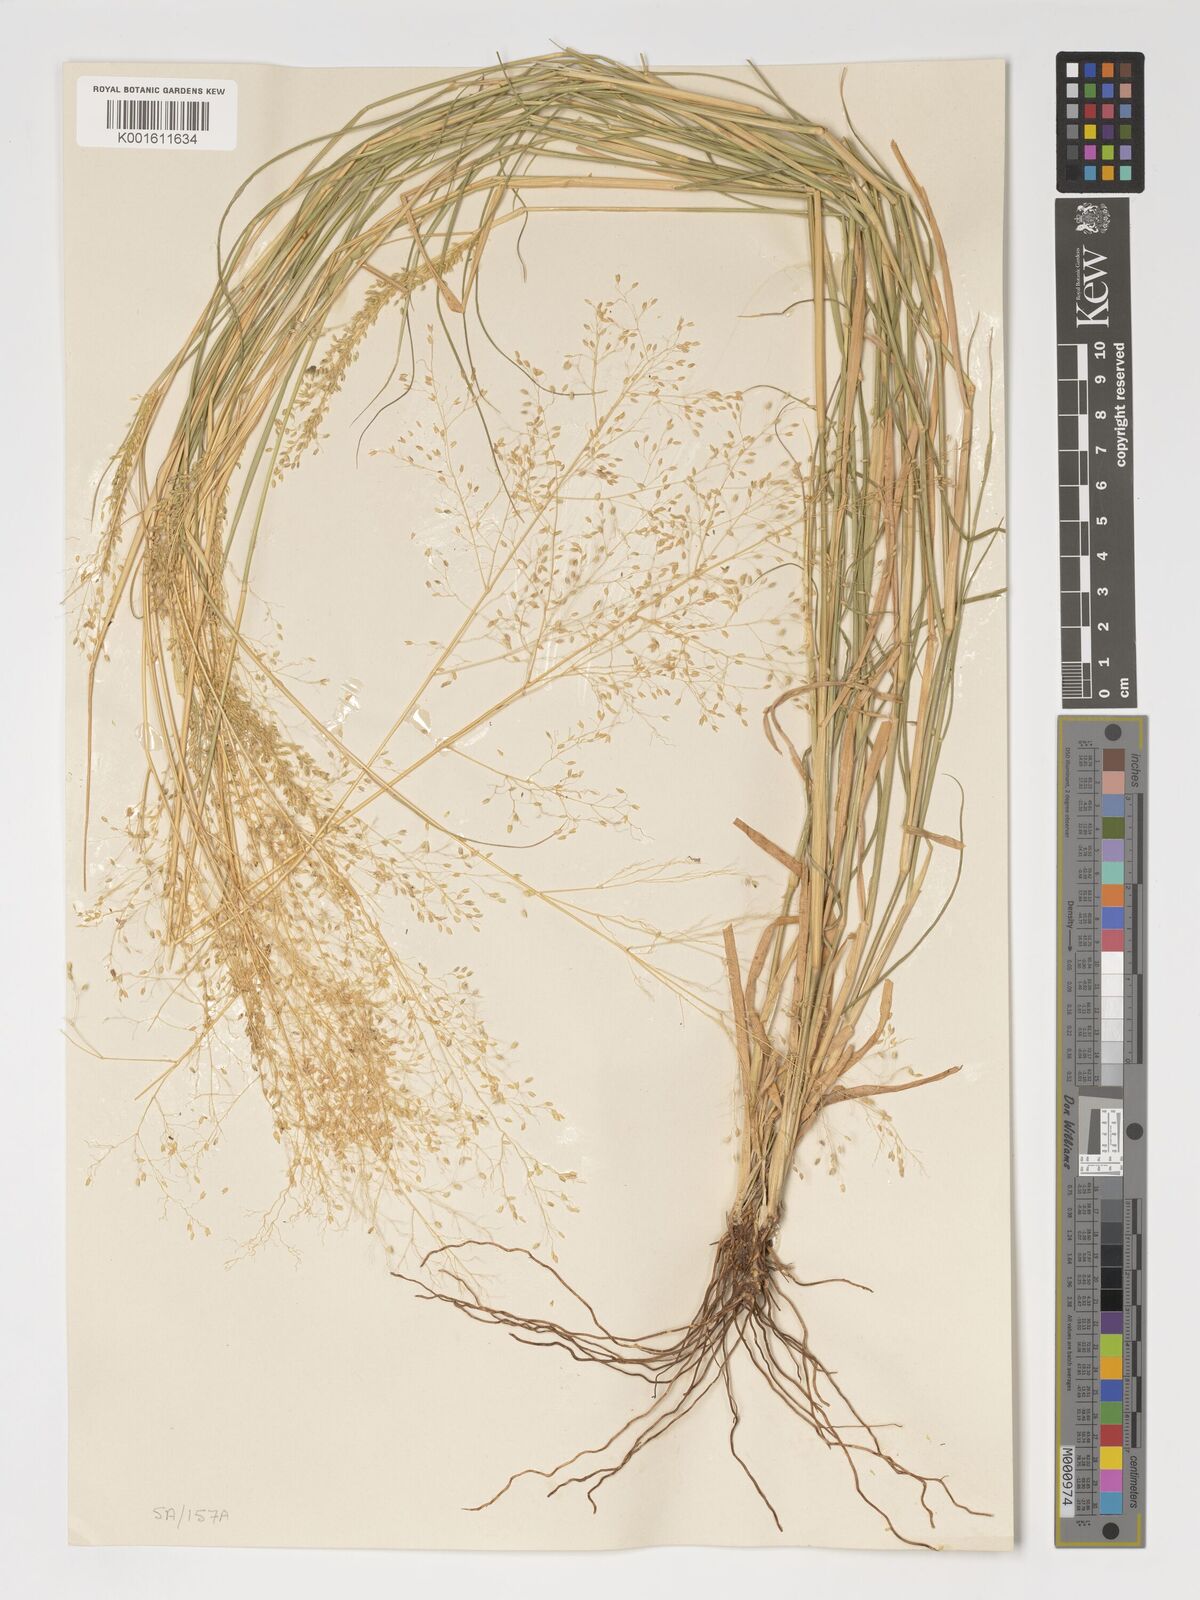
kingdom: Plantae
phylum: Tracheophyta
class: Liliopsida
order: Poales
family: Poaceae
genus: Tricholaena
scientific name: Tricholaena monachne
